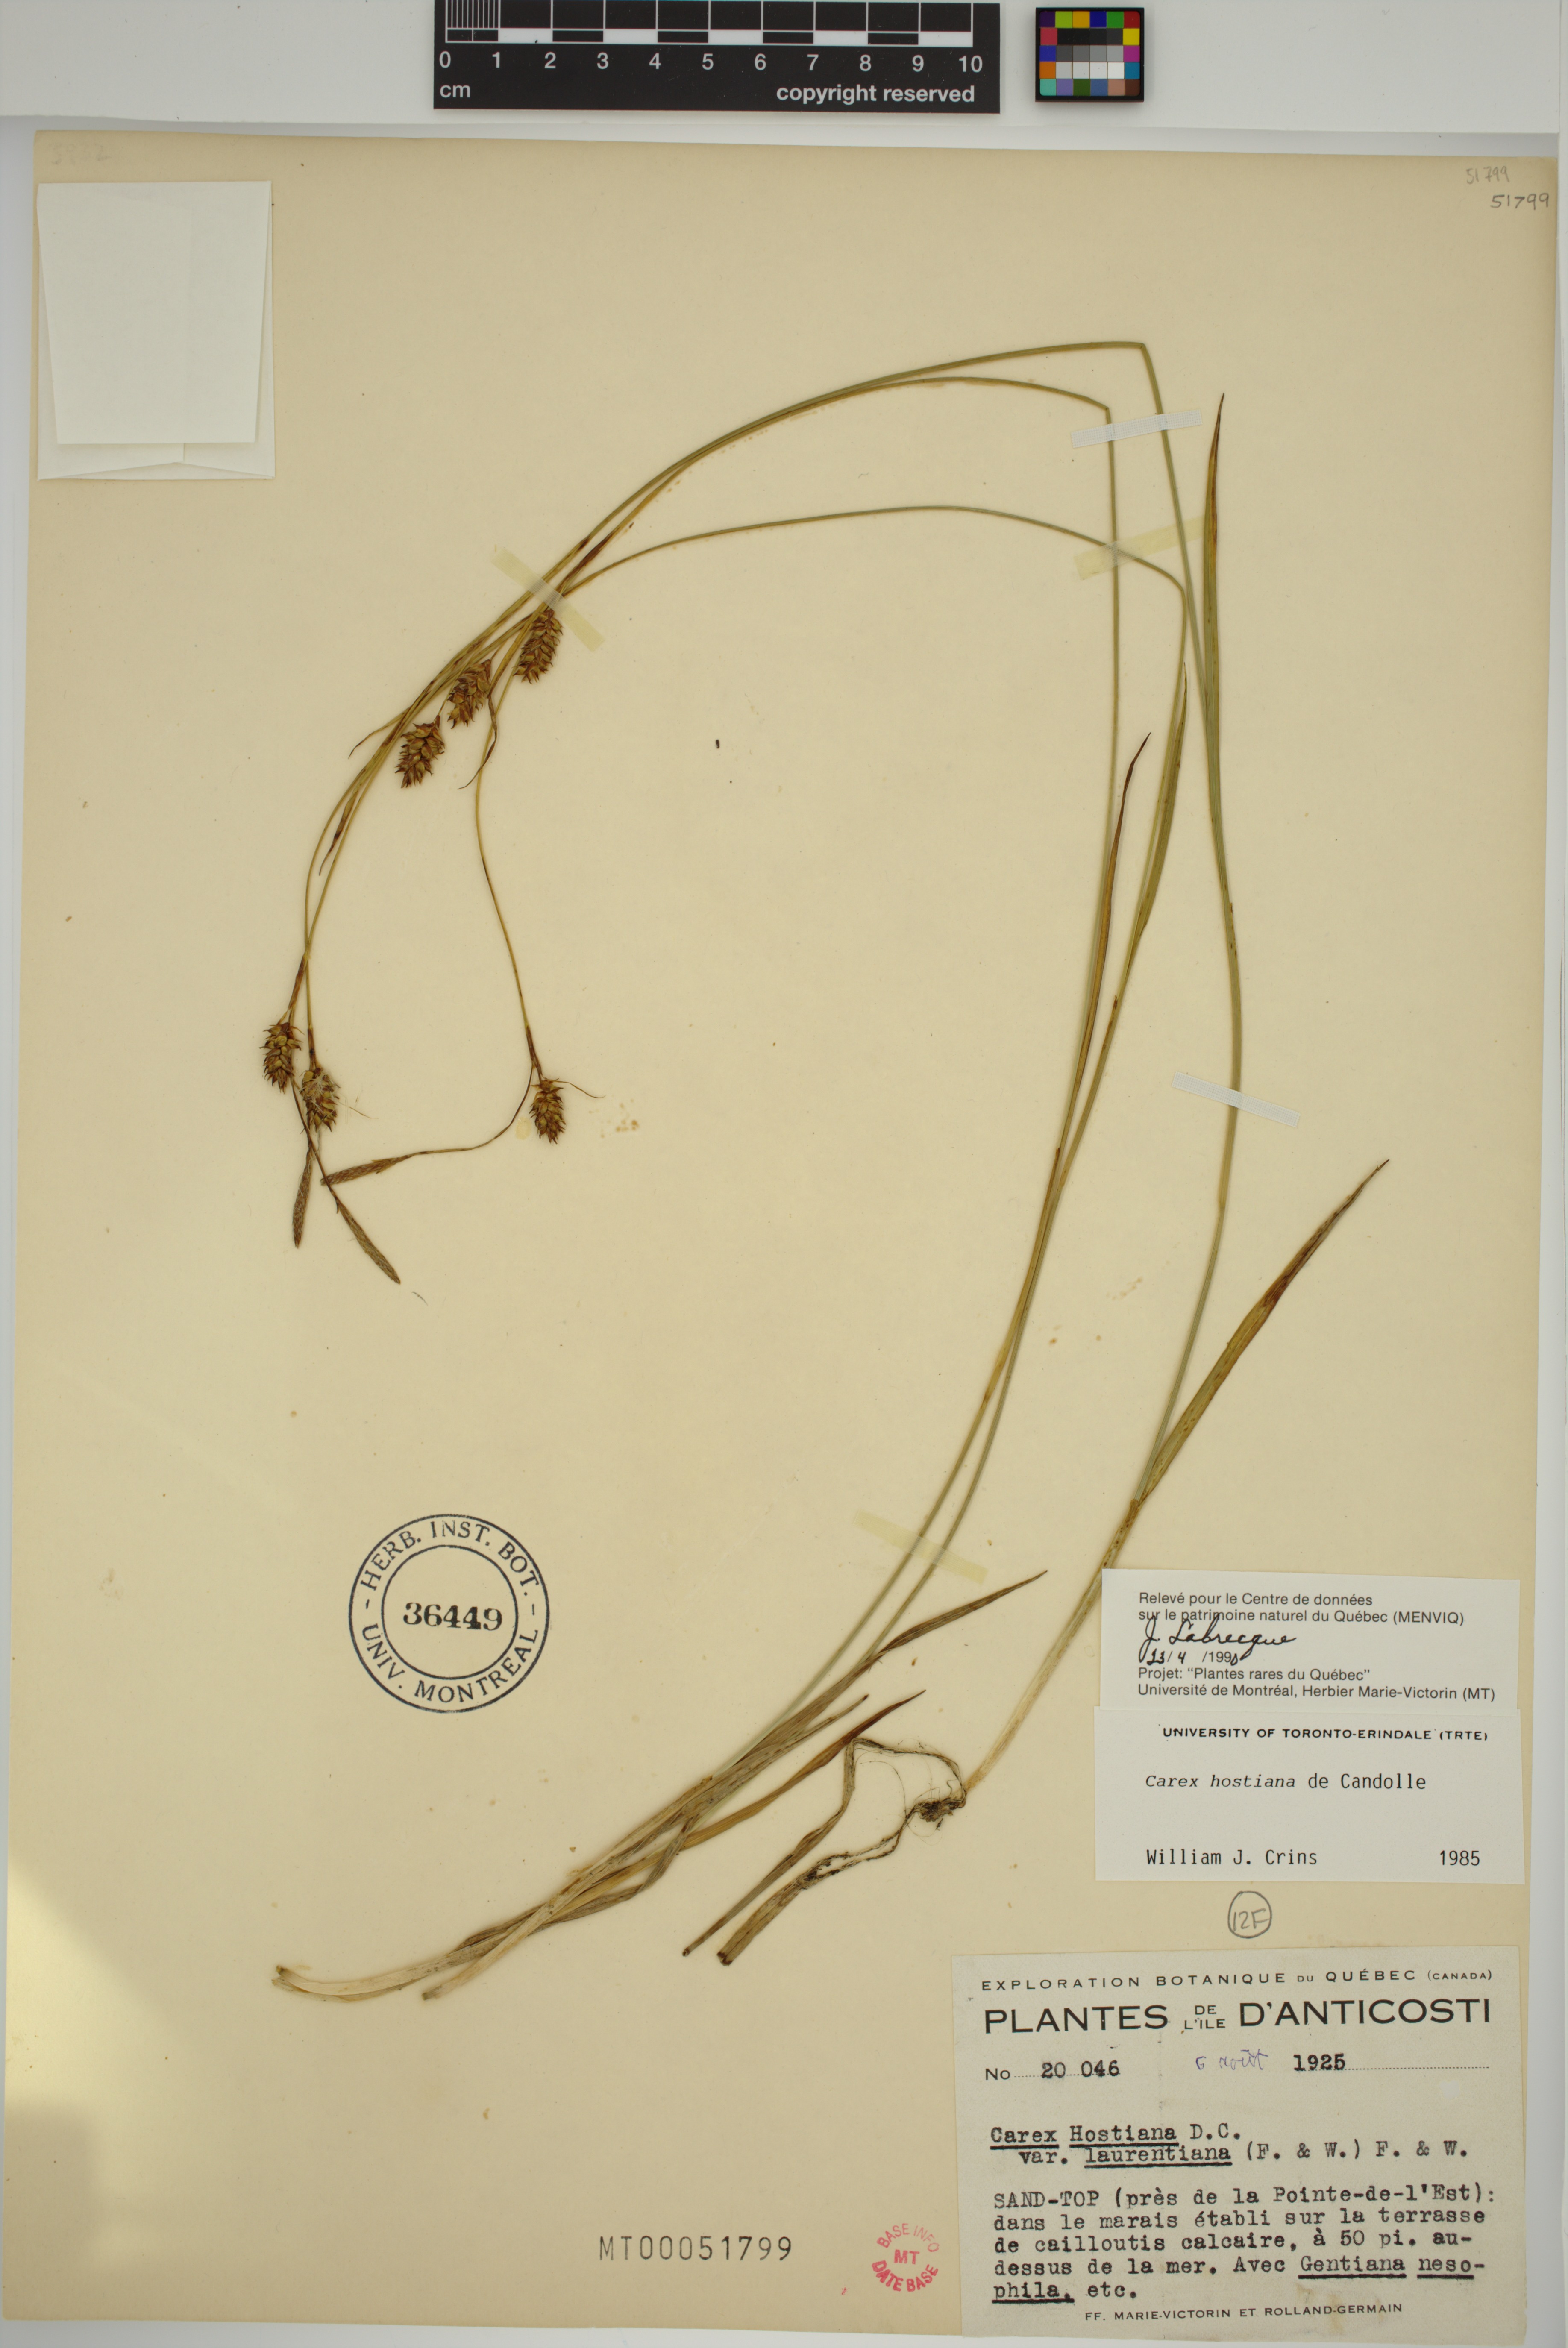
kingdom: Plantae
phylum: Tracheophyta
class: Liliopsida
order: Poales
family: Cyperaceae
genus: Carex
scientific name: Carex hostiana
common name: Tawny sedge
